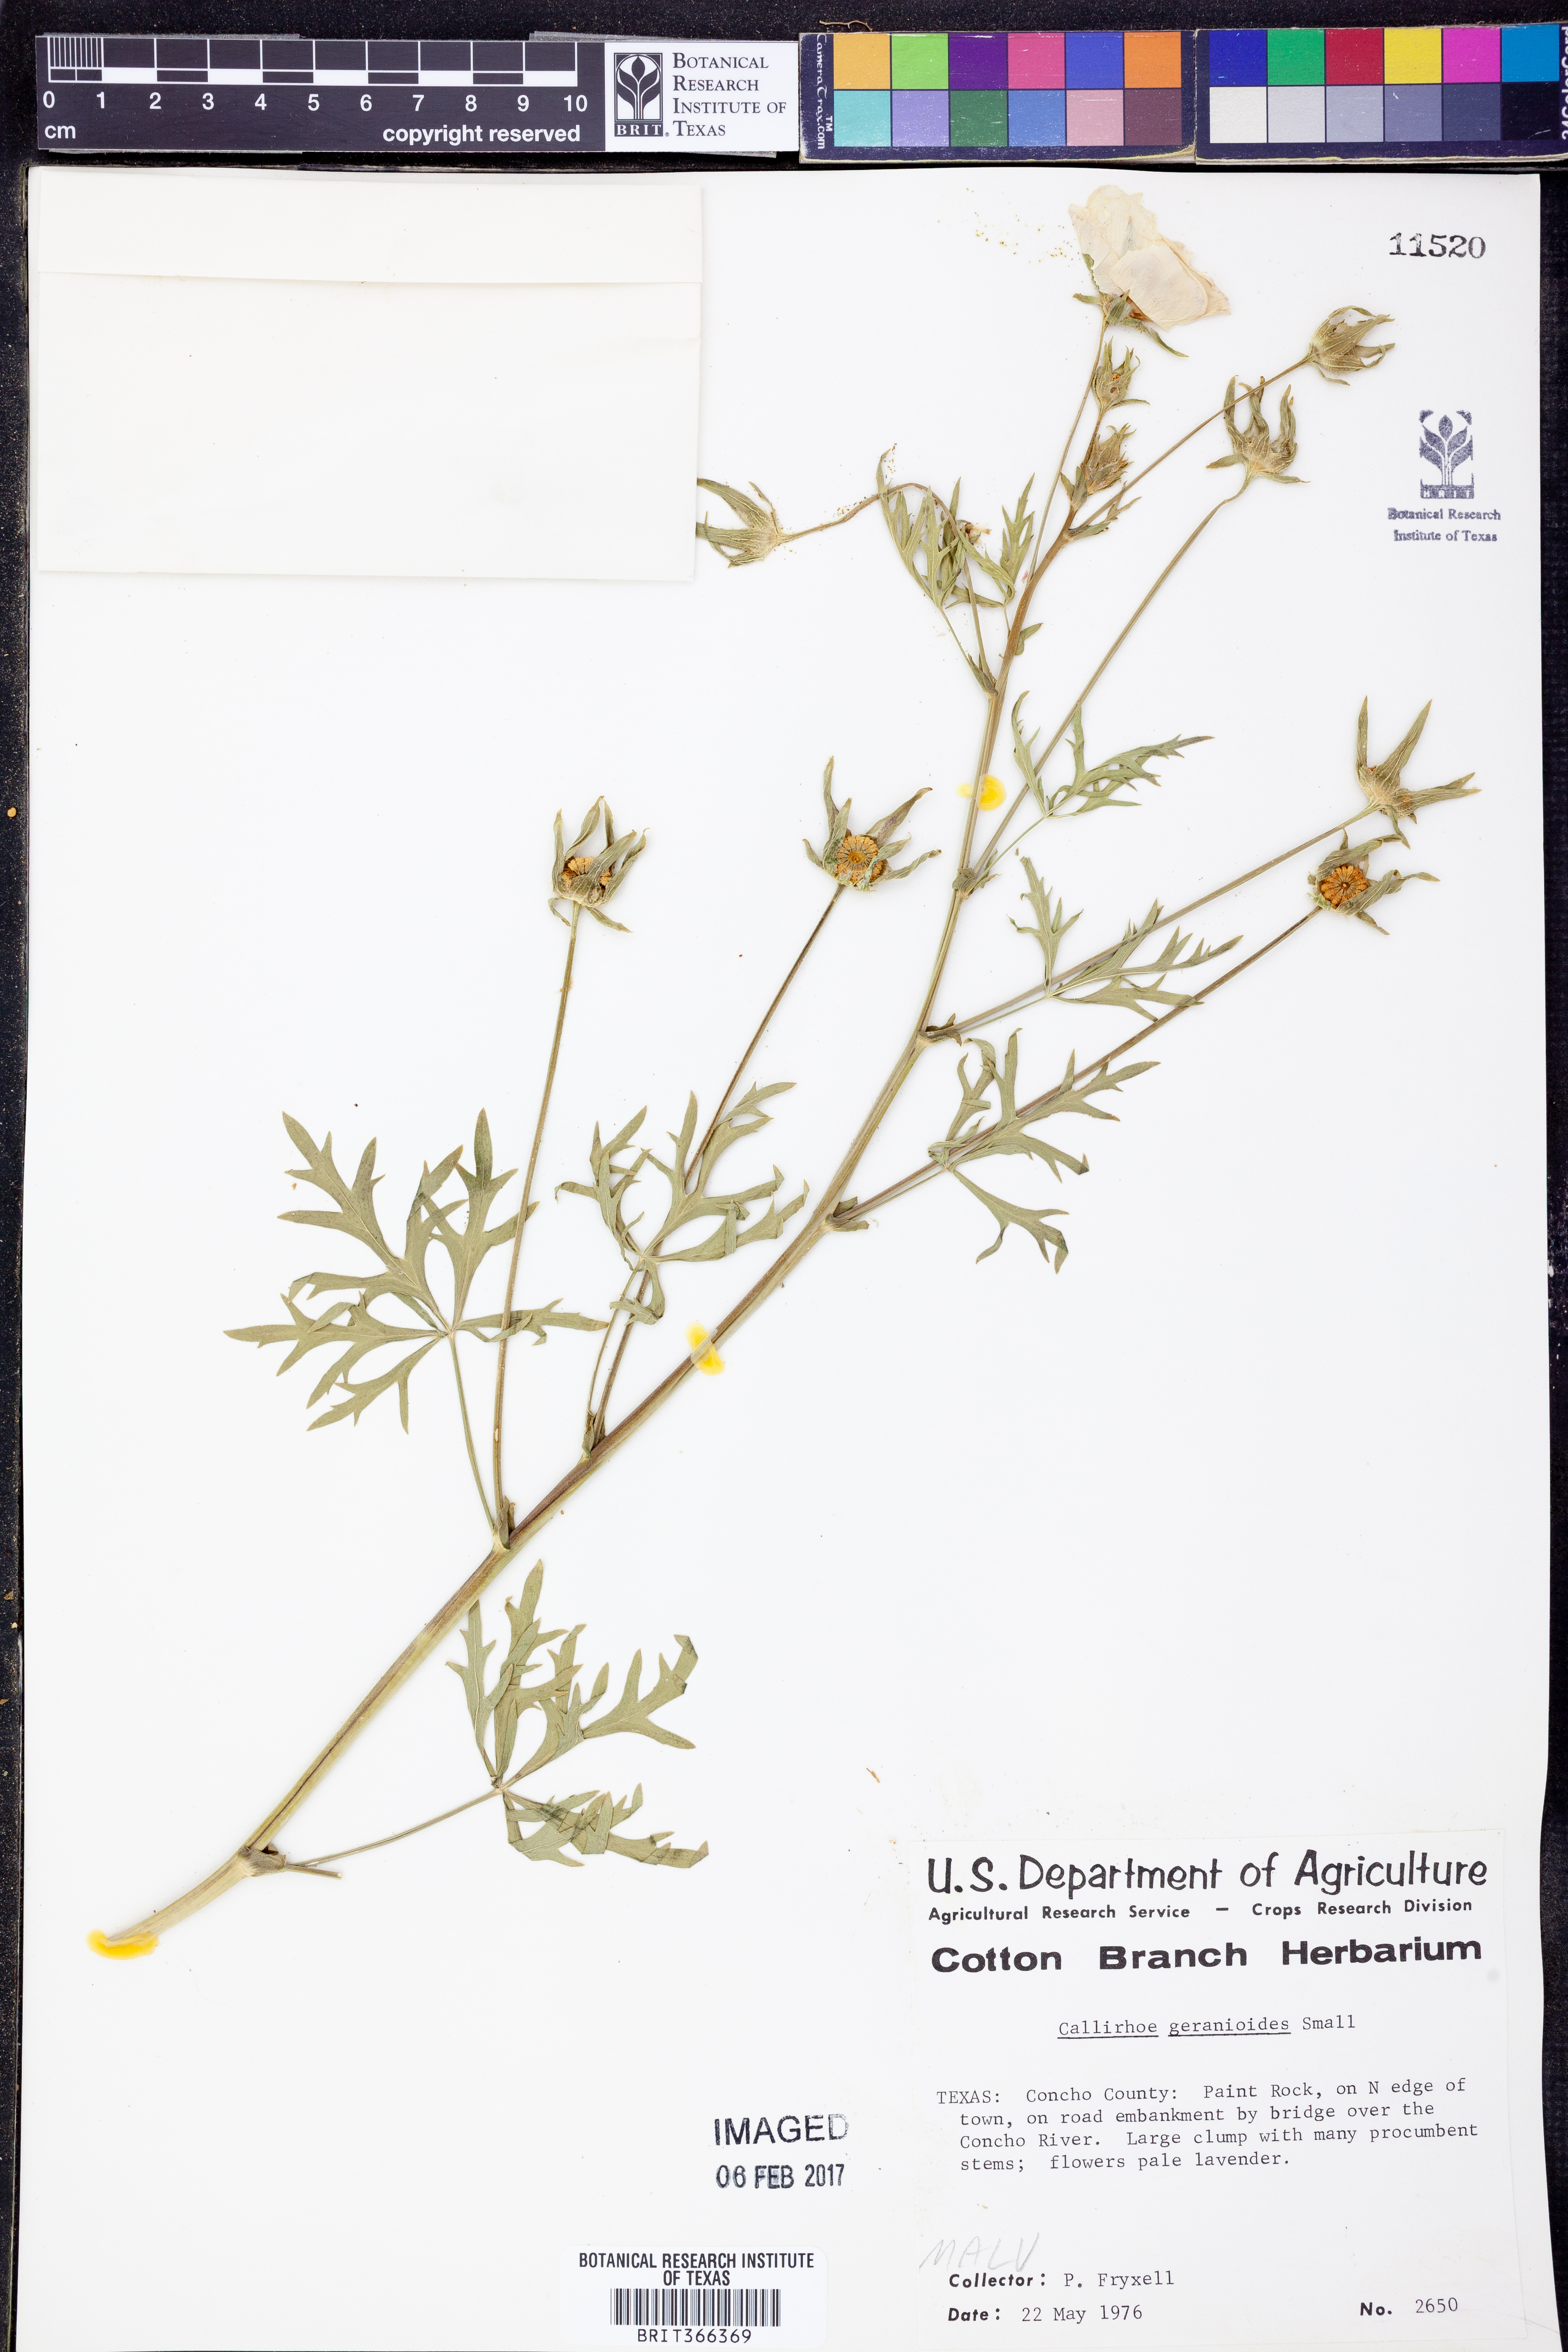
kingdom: Plantae
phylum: Tracheophyta
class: Magnoliopsida
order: Malvales
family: Malvaceae
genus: Callirhoe
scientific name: Callirhoe involucrata
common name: Purple poppy-mallow
